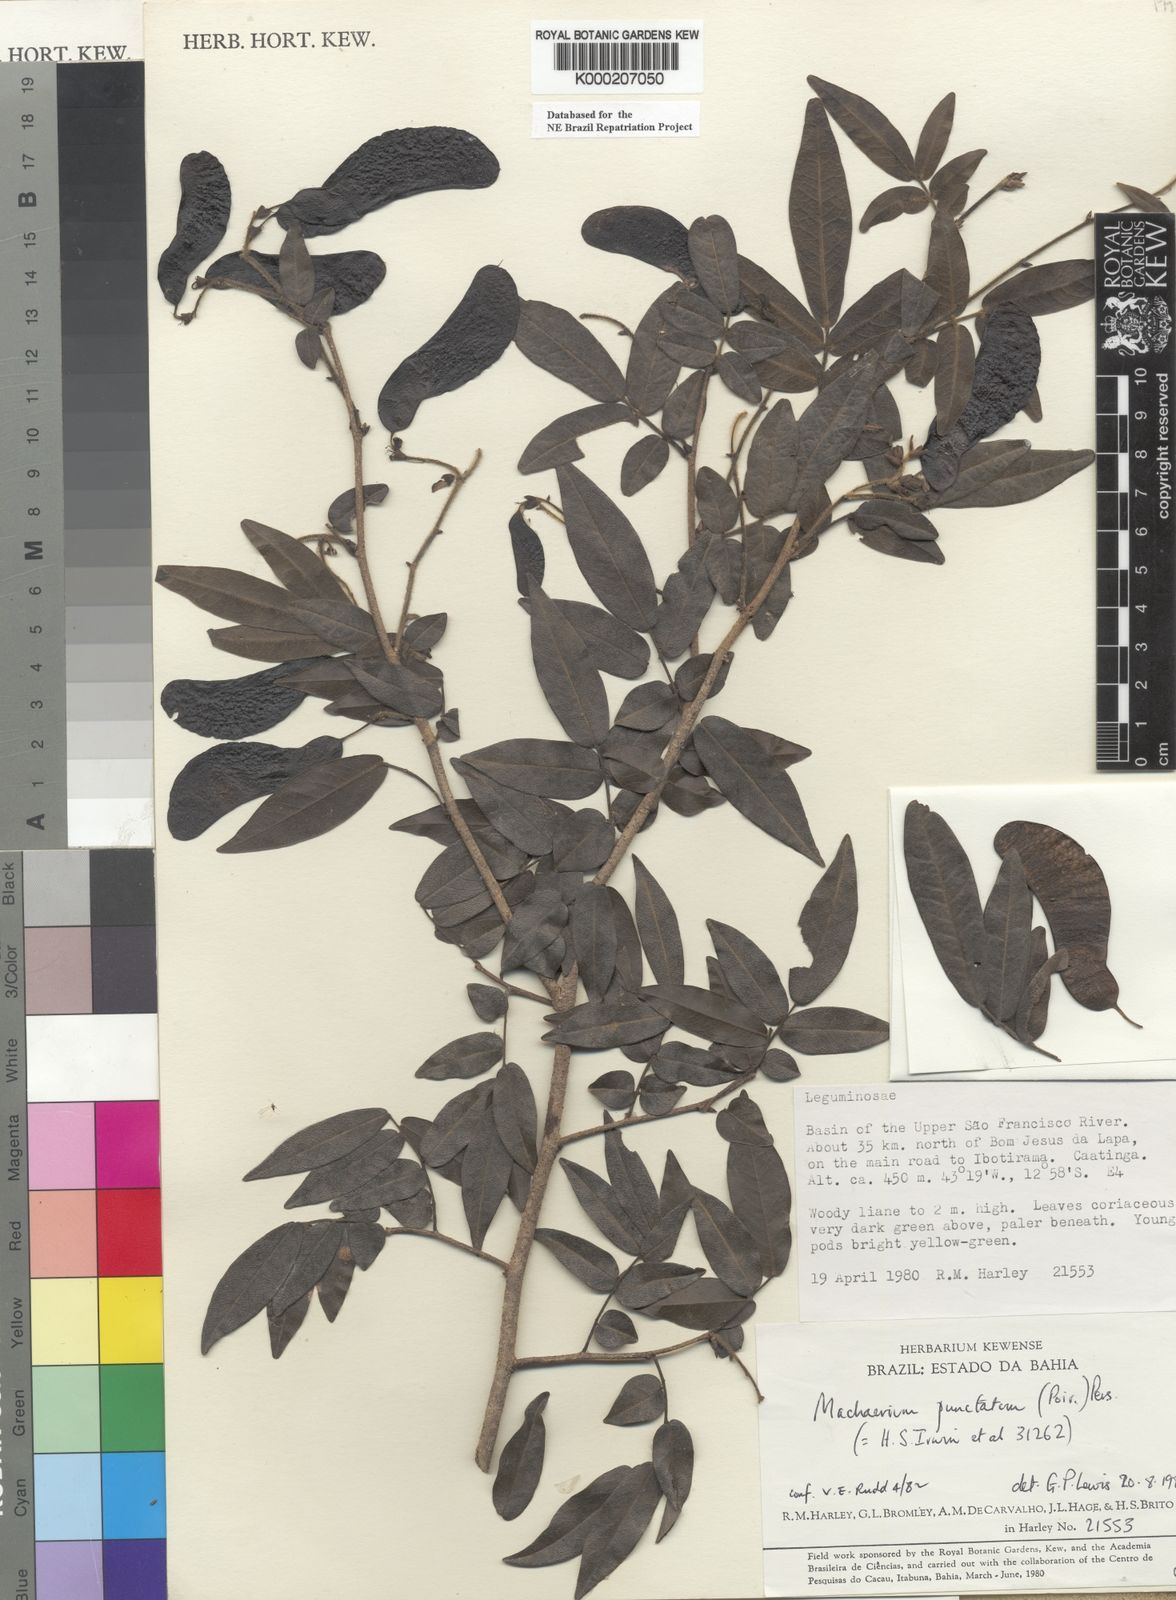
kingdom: Plantae
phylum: Tracheophyta
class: Magnoliopsida
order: Fabales
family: Fabaceae
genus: Machaerium
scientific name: Machaerium punctatum
